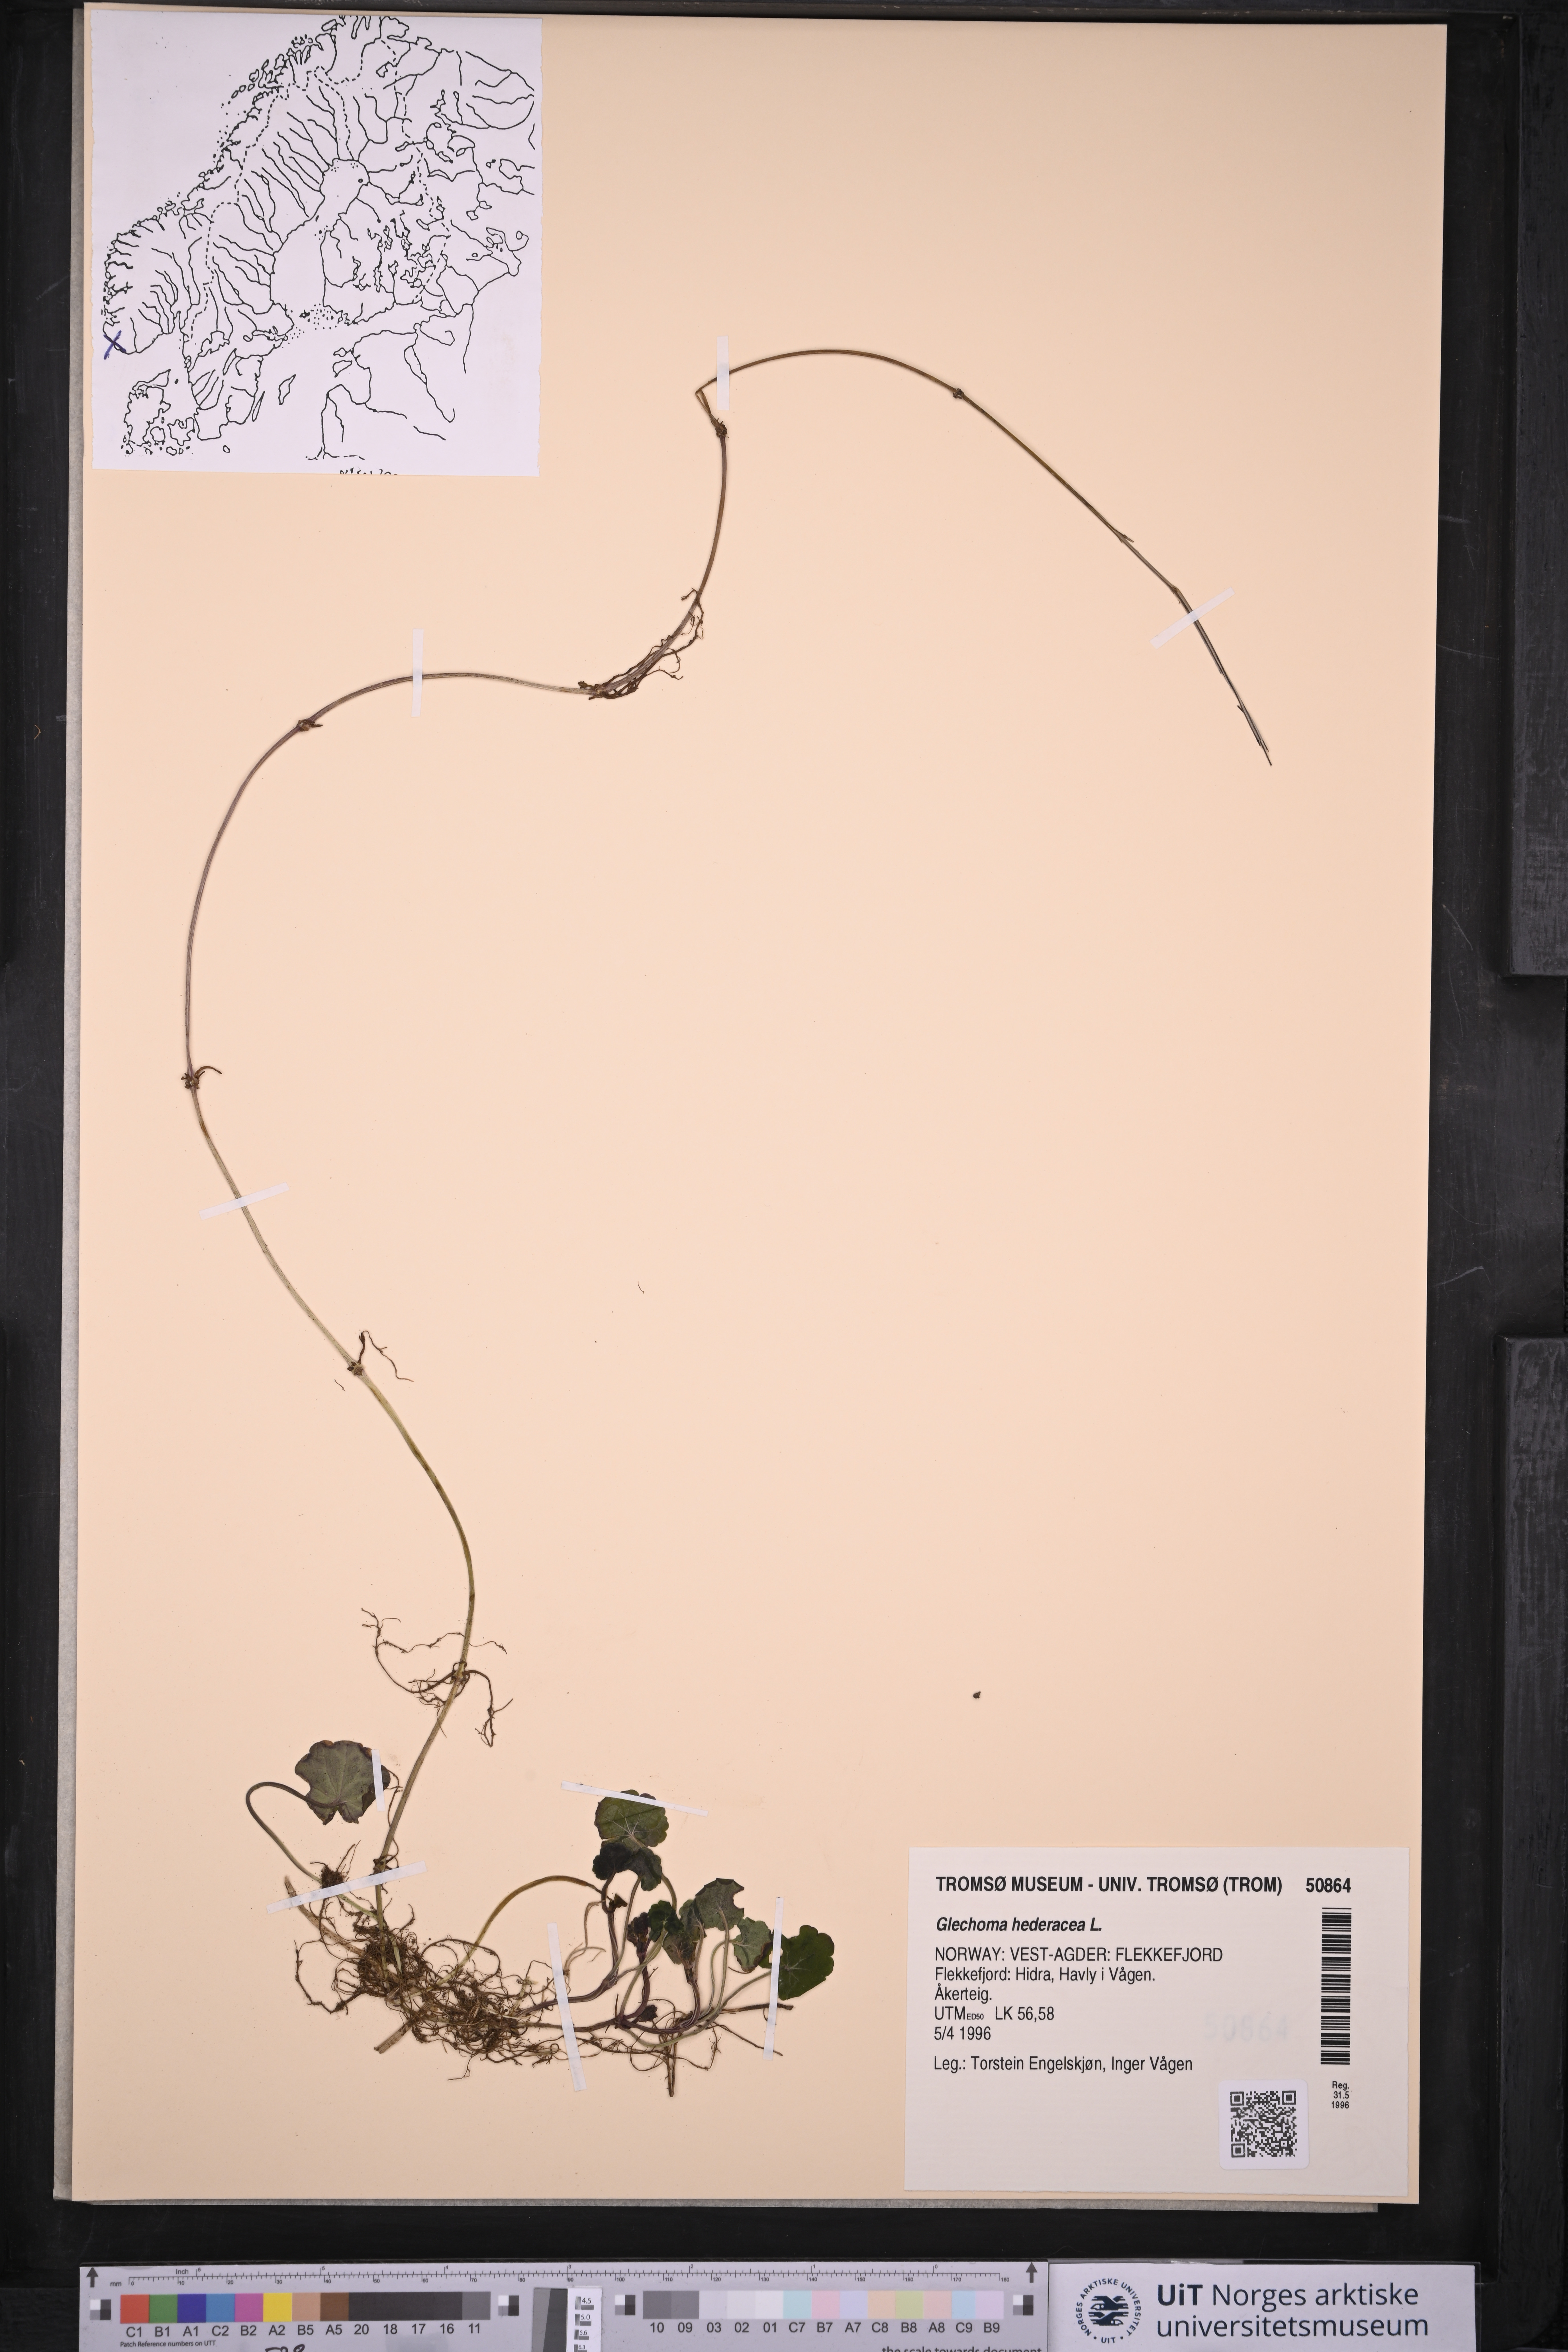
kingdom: Plantae
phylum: Tracheophyta
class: Magnoliopsida
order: Lamiales
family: Lamiaceae
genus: Glechoma
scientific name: Glechoma hederacea
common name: Ground ivy
